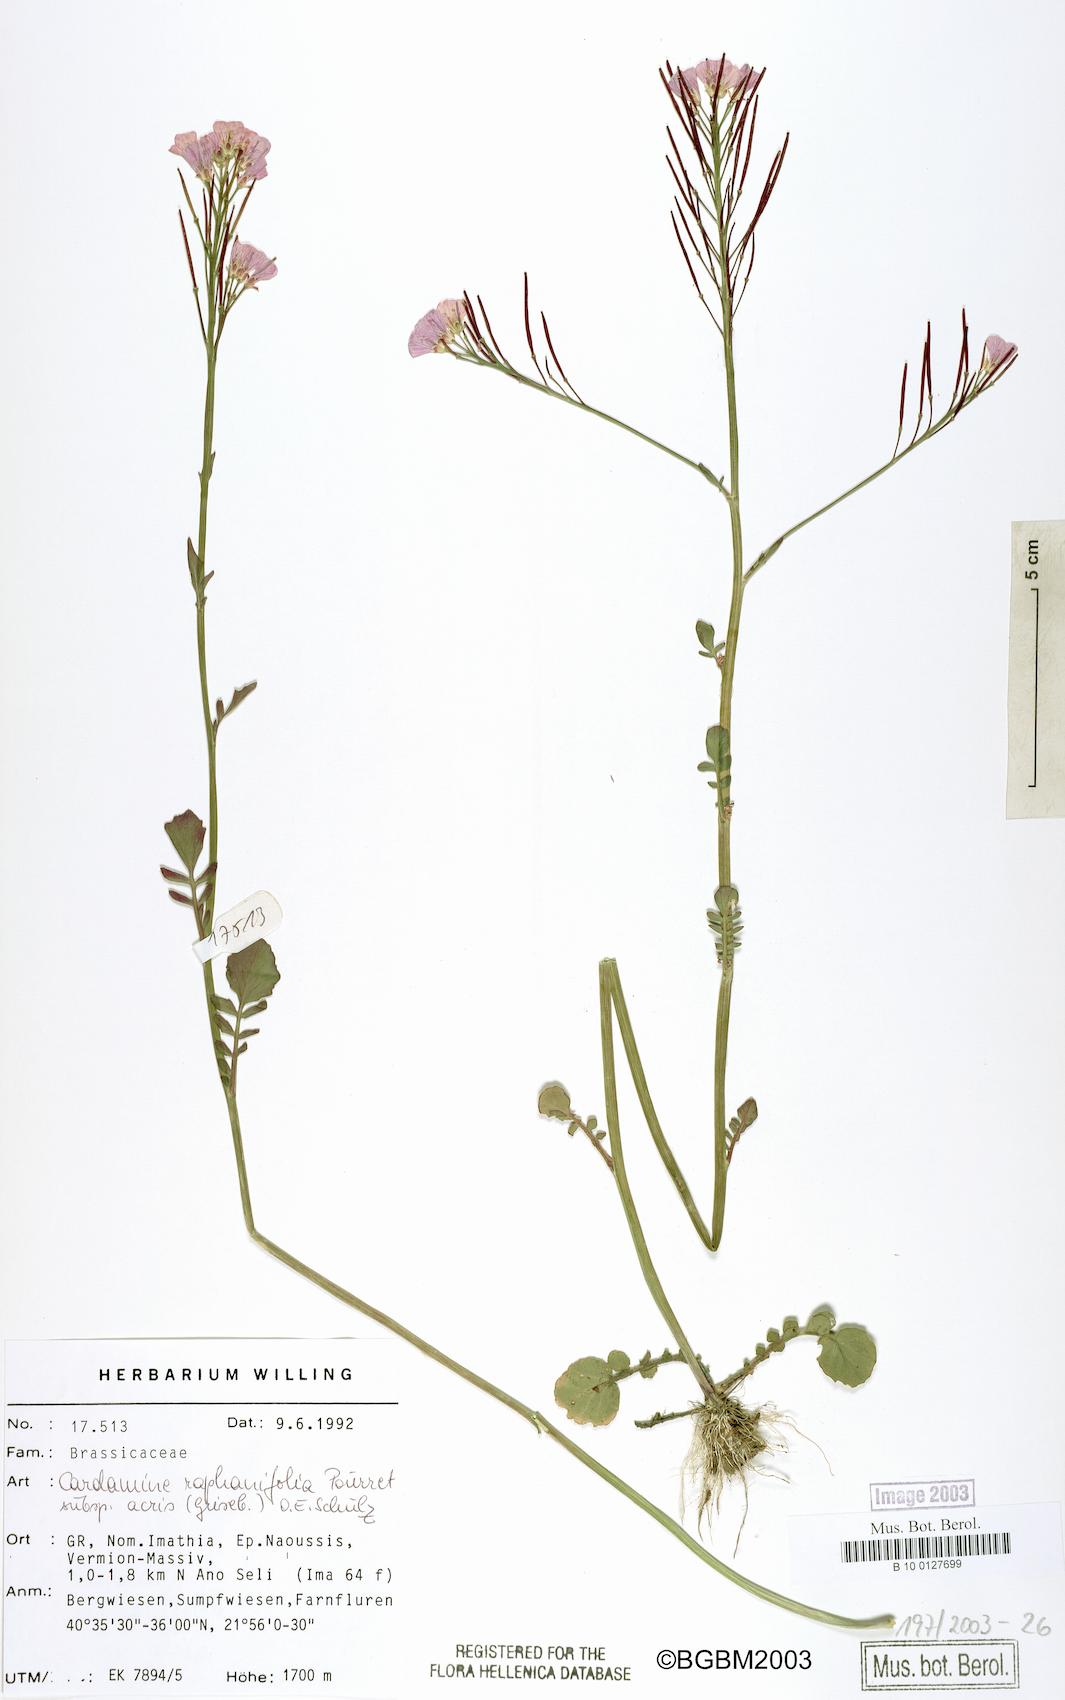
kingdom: Plantae
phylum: Tracheophyta
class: Magnoliopsida
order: Brassicales
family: Brassicaceae
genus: Cardamine
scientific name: Cardamine raphanifolia
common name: Greater cuckooflower
